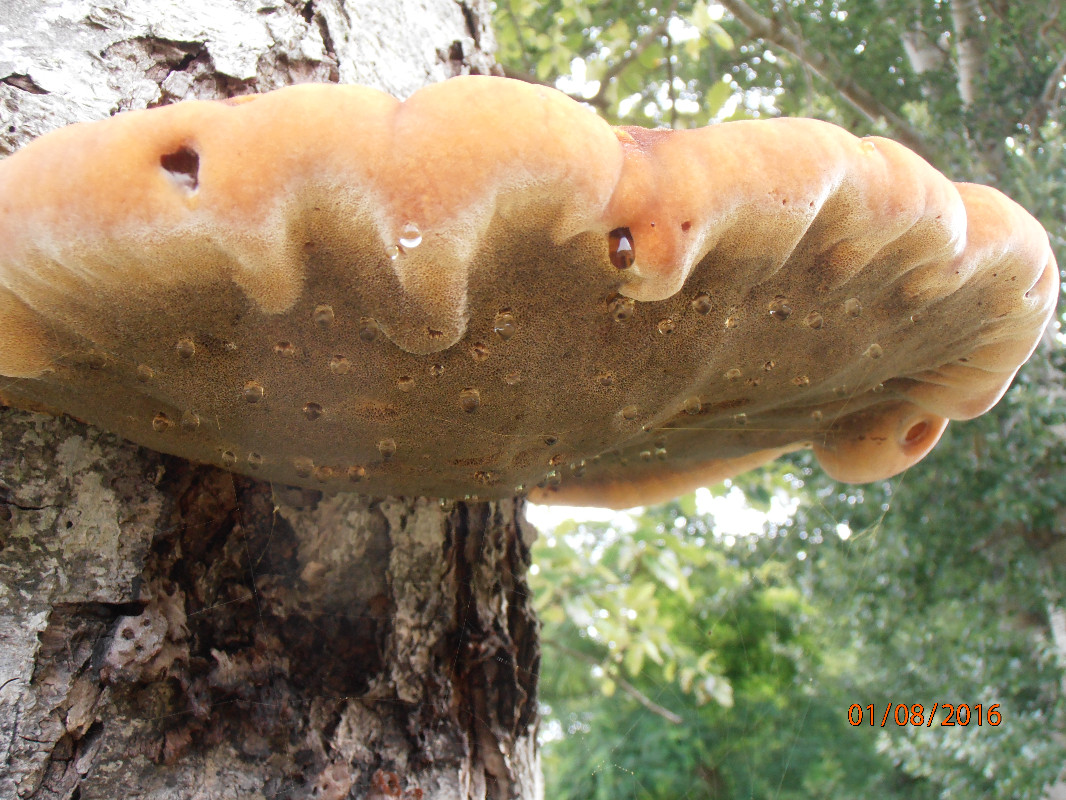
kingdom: Fungi
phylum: Basidiomycota
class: Agaricomycetes
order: Hymenochaetales
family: Hymenochaetaceae
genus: Inonotus
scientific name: Inonotus hispidus
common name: børstehåret spejlporesvamp
